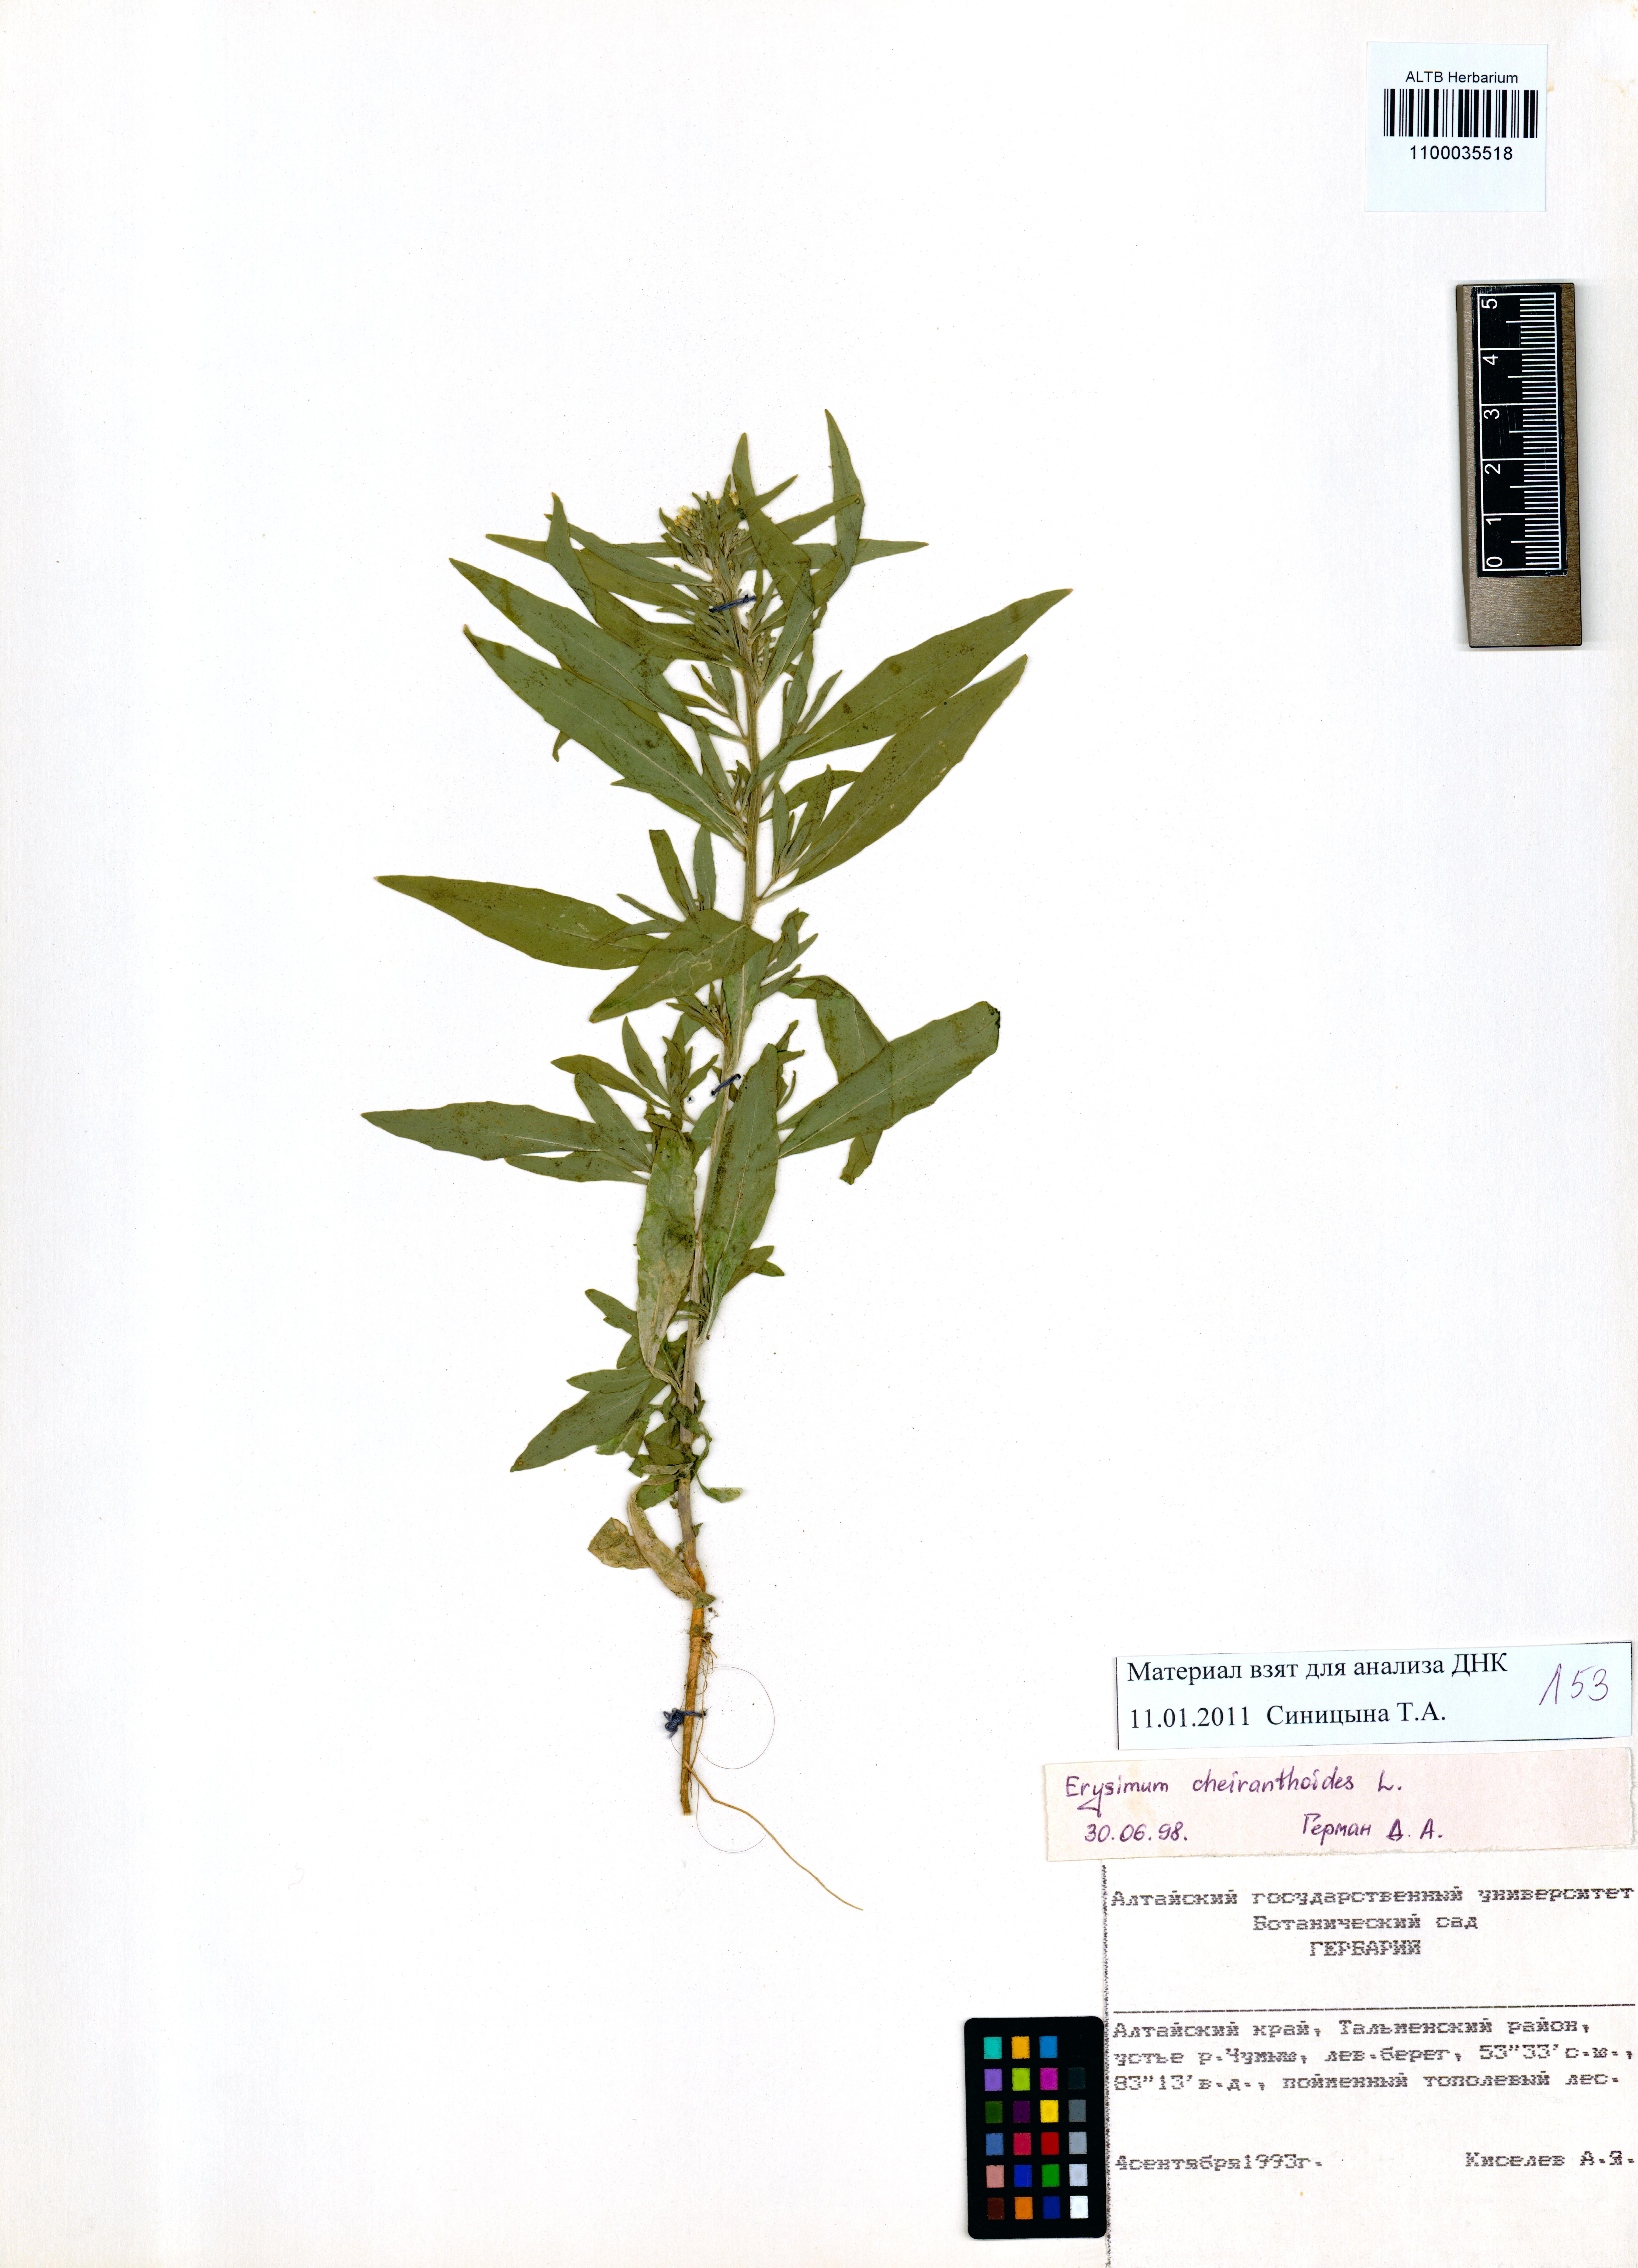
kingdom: Plantae
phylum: Tracheophyta
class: Magnoliopsida
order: Brassicales
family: Brassicaceae
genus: Erysimum
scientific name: Erysimum cheiranthoides
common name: Treacle mustard
